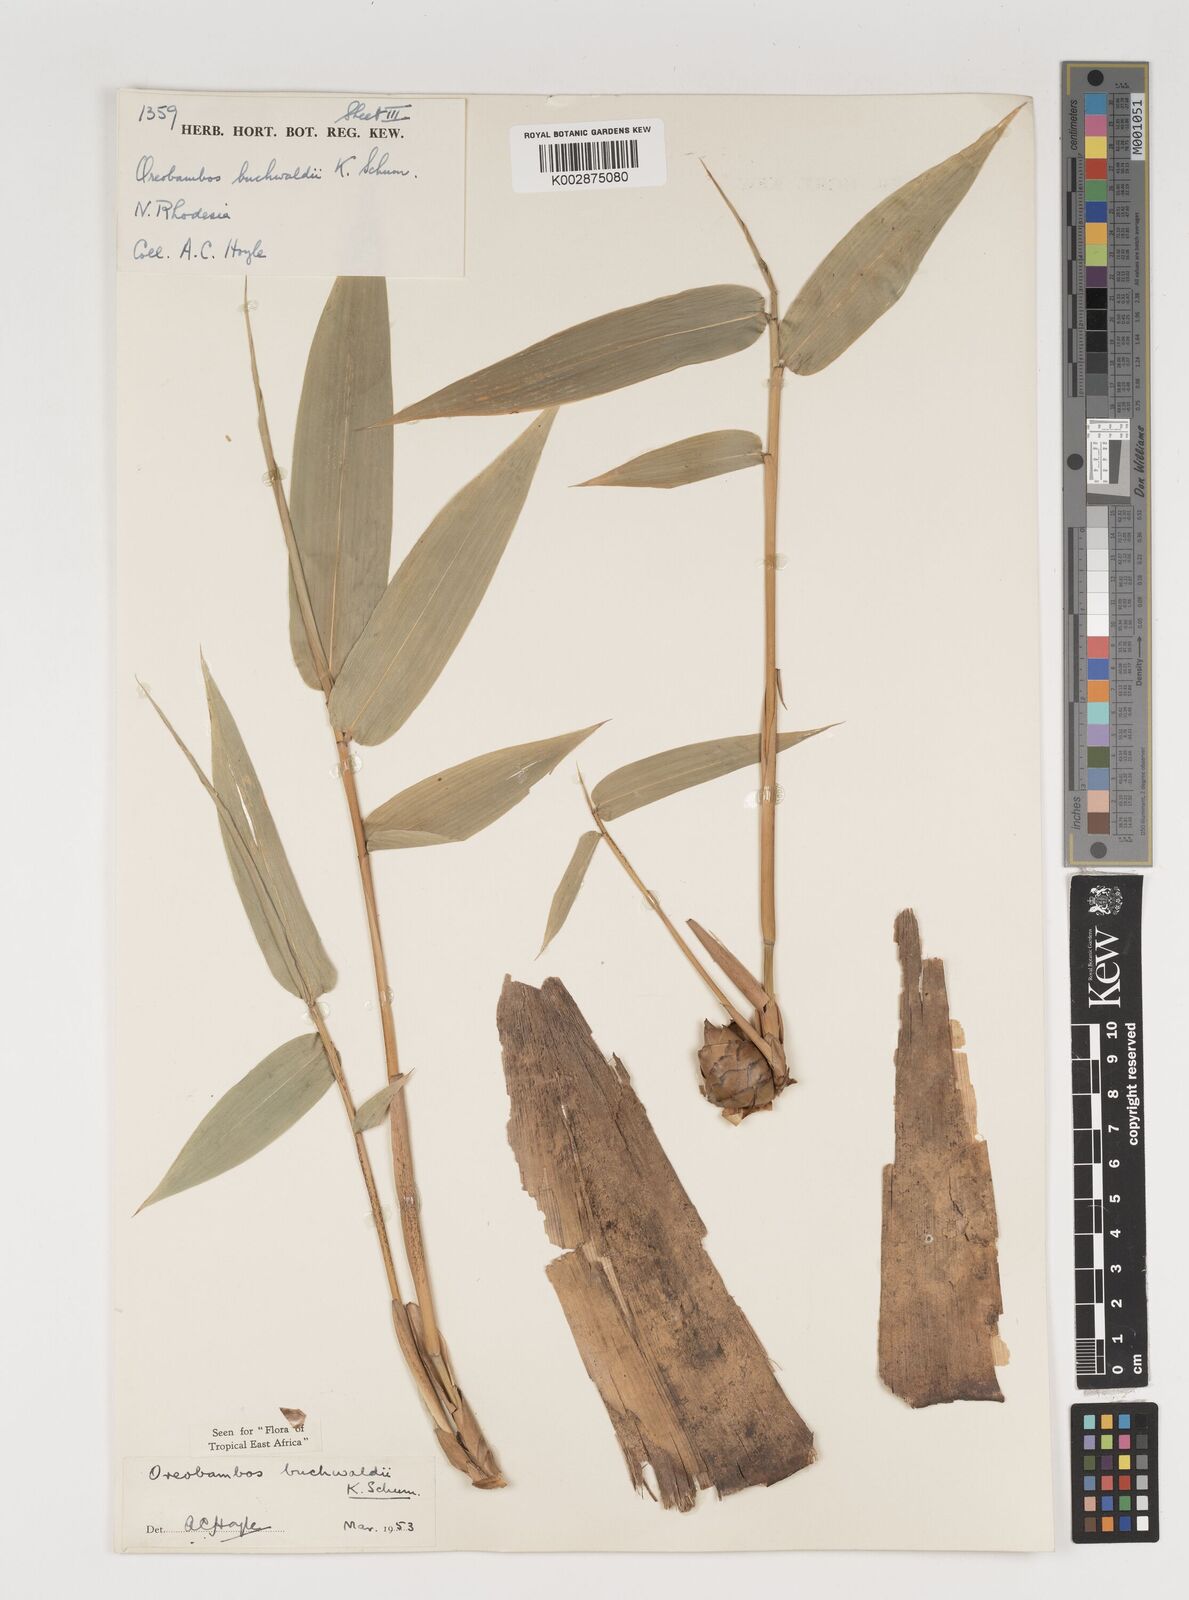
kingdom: Plantae
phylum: Tracheophyta
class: Liliopsida
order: Poales
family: Poaceae
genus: Oreobambos
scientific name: Oreobambos buchwaldii
